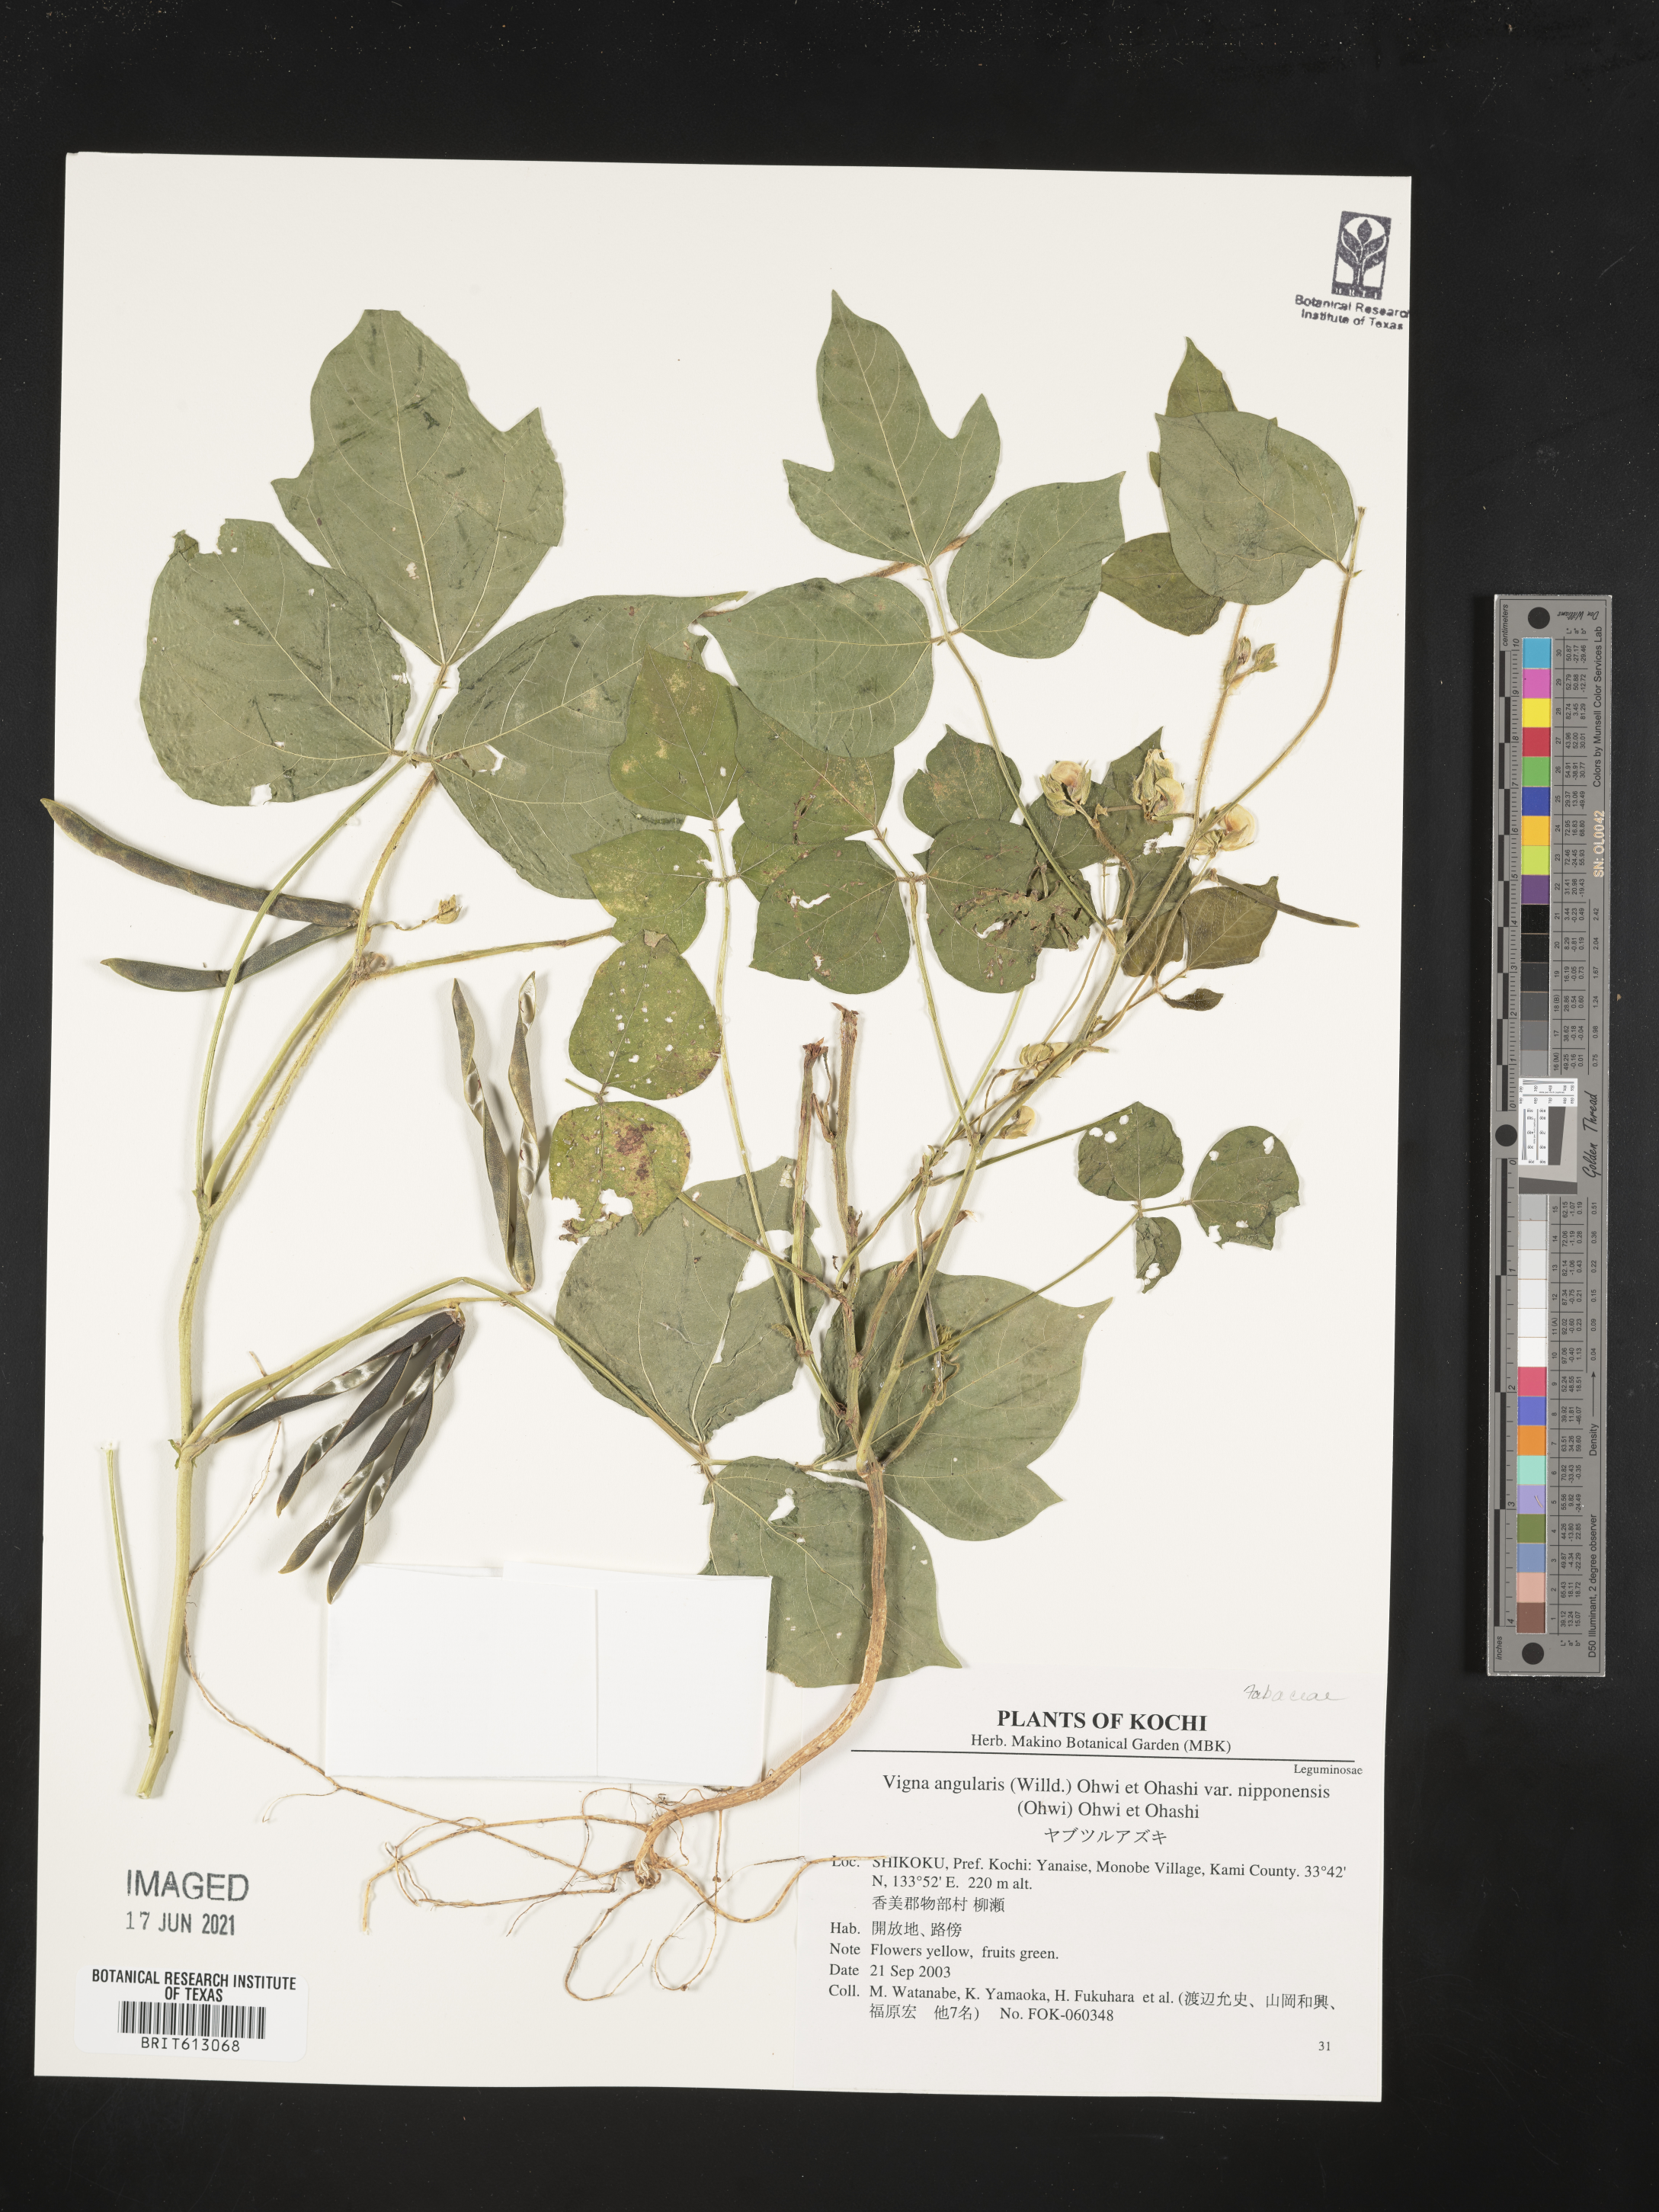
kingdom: Plantae
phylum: Tracheophyta
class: Magnoliopsida
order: Fabales
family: Fabaceae
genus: Vigna
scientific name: Vigna angularis
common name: Adzuki bean
